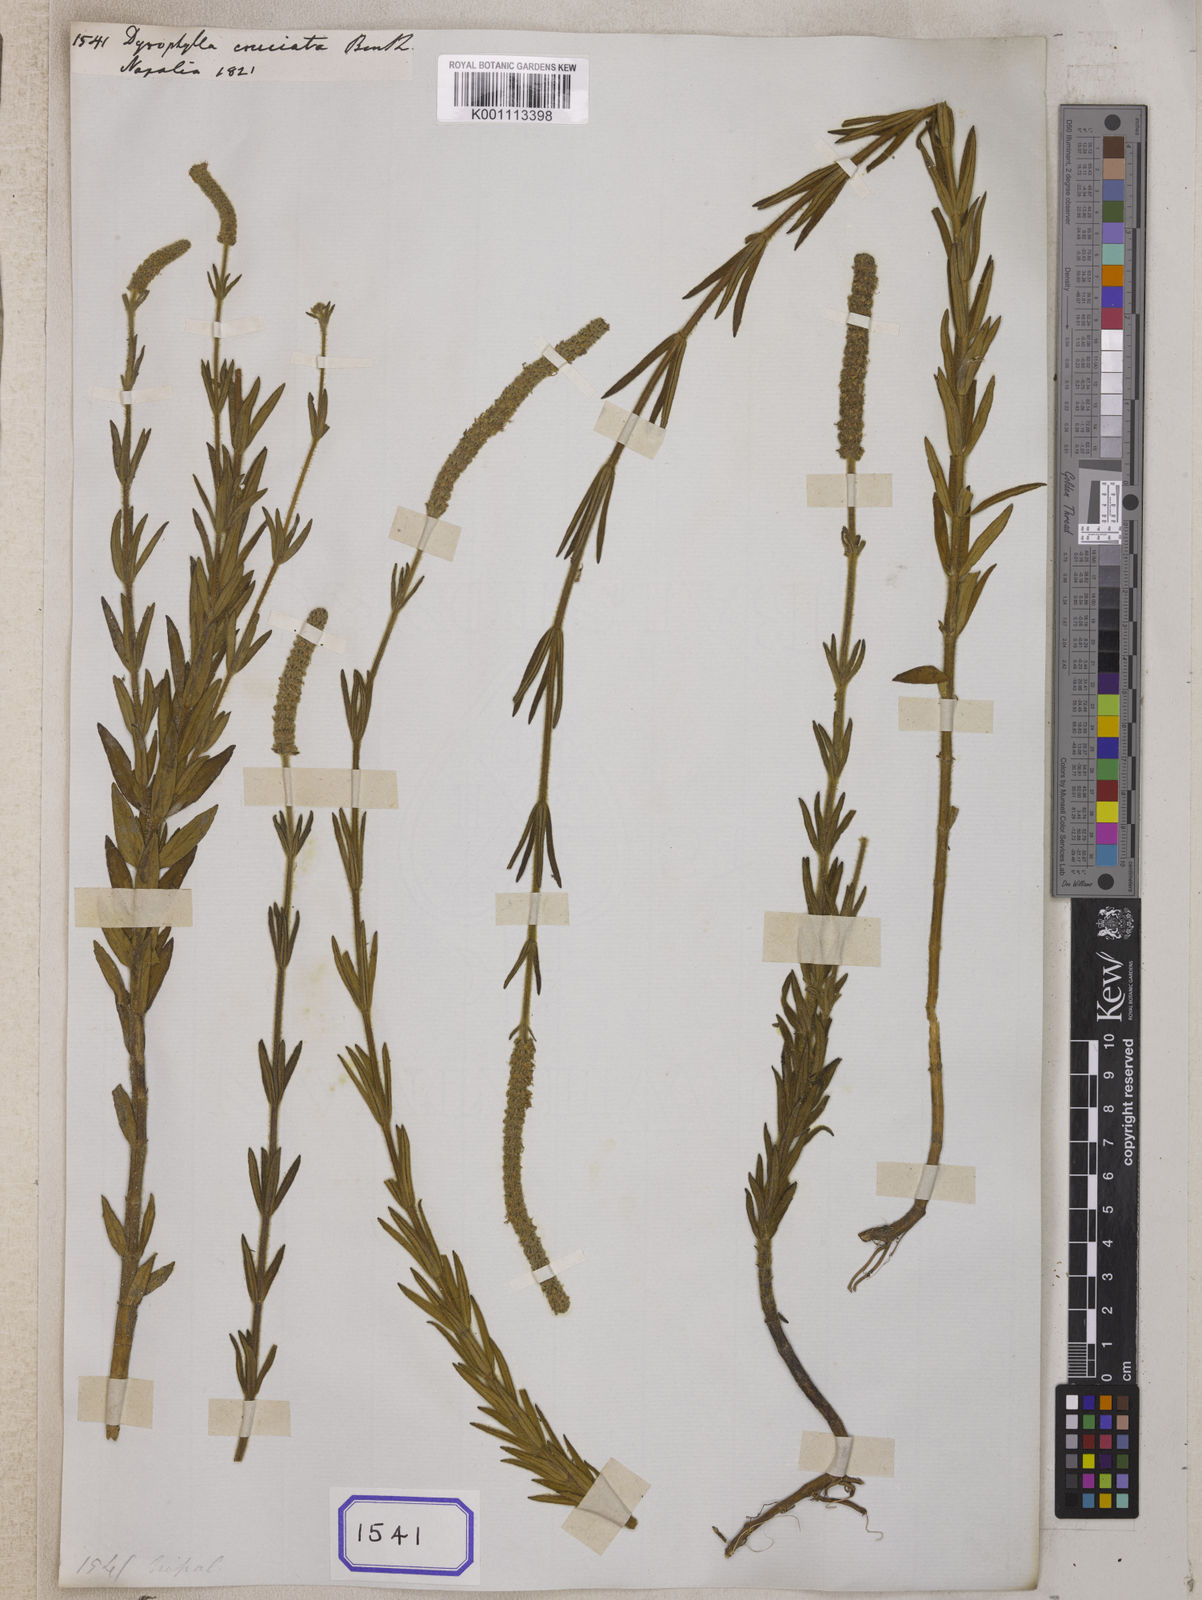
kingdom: Plantae
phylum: Tracheophyta
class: Magnoliopsida
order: Lamiales
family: Lamiaceae
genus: Pogostemon
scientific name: Pogostemon cruciatus
